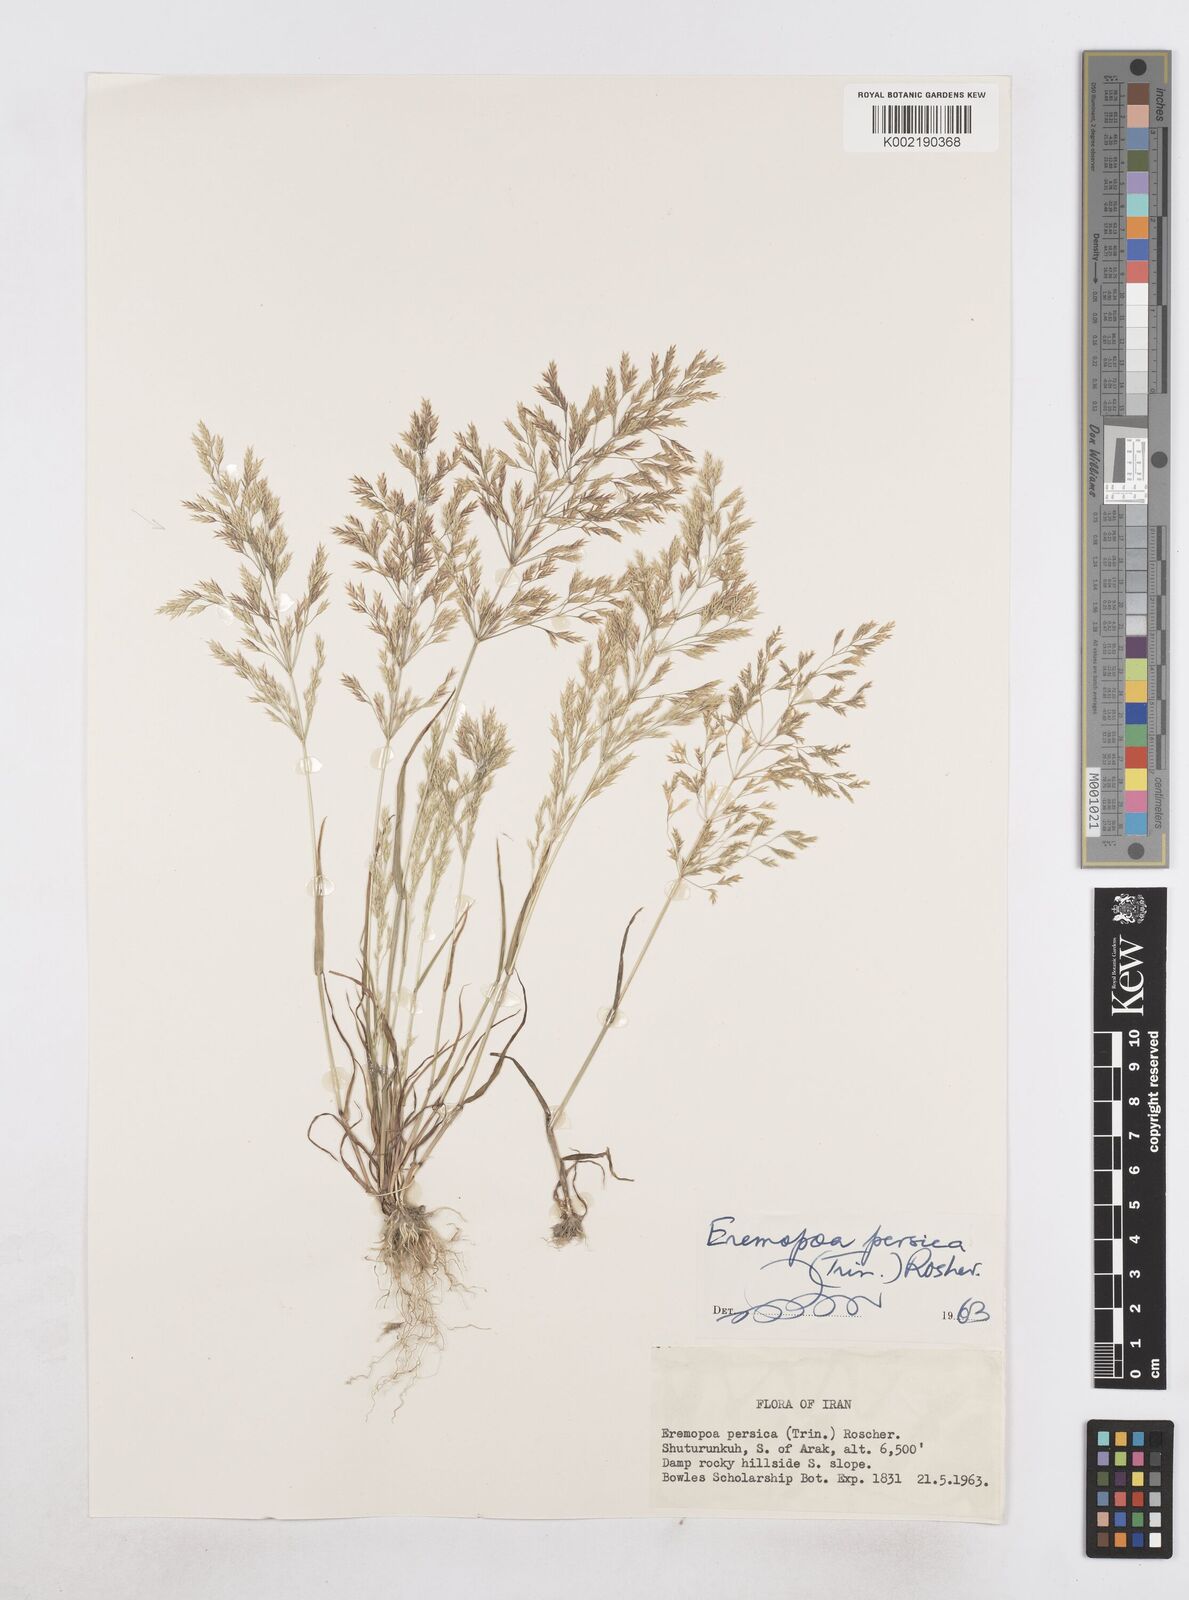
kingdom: Plantae
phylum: Tracheophyta
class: Liliopsida
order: Poales
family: Poaceae
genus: Poa
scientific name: Poa persica
